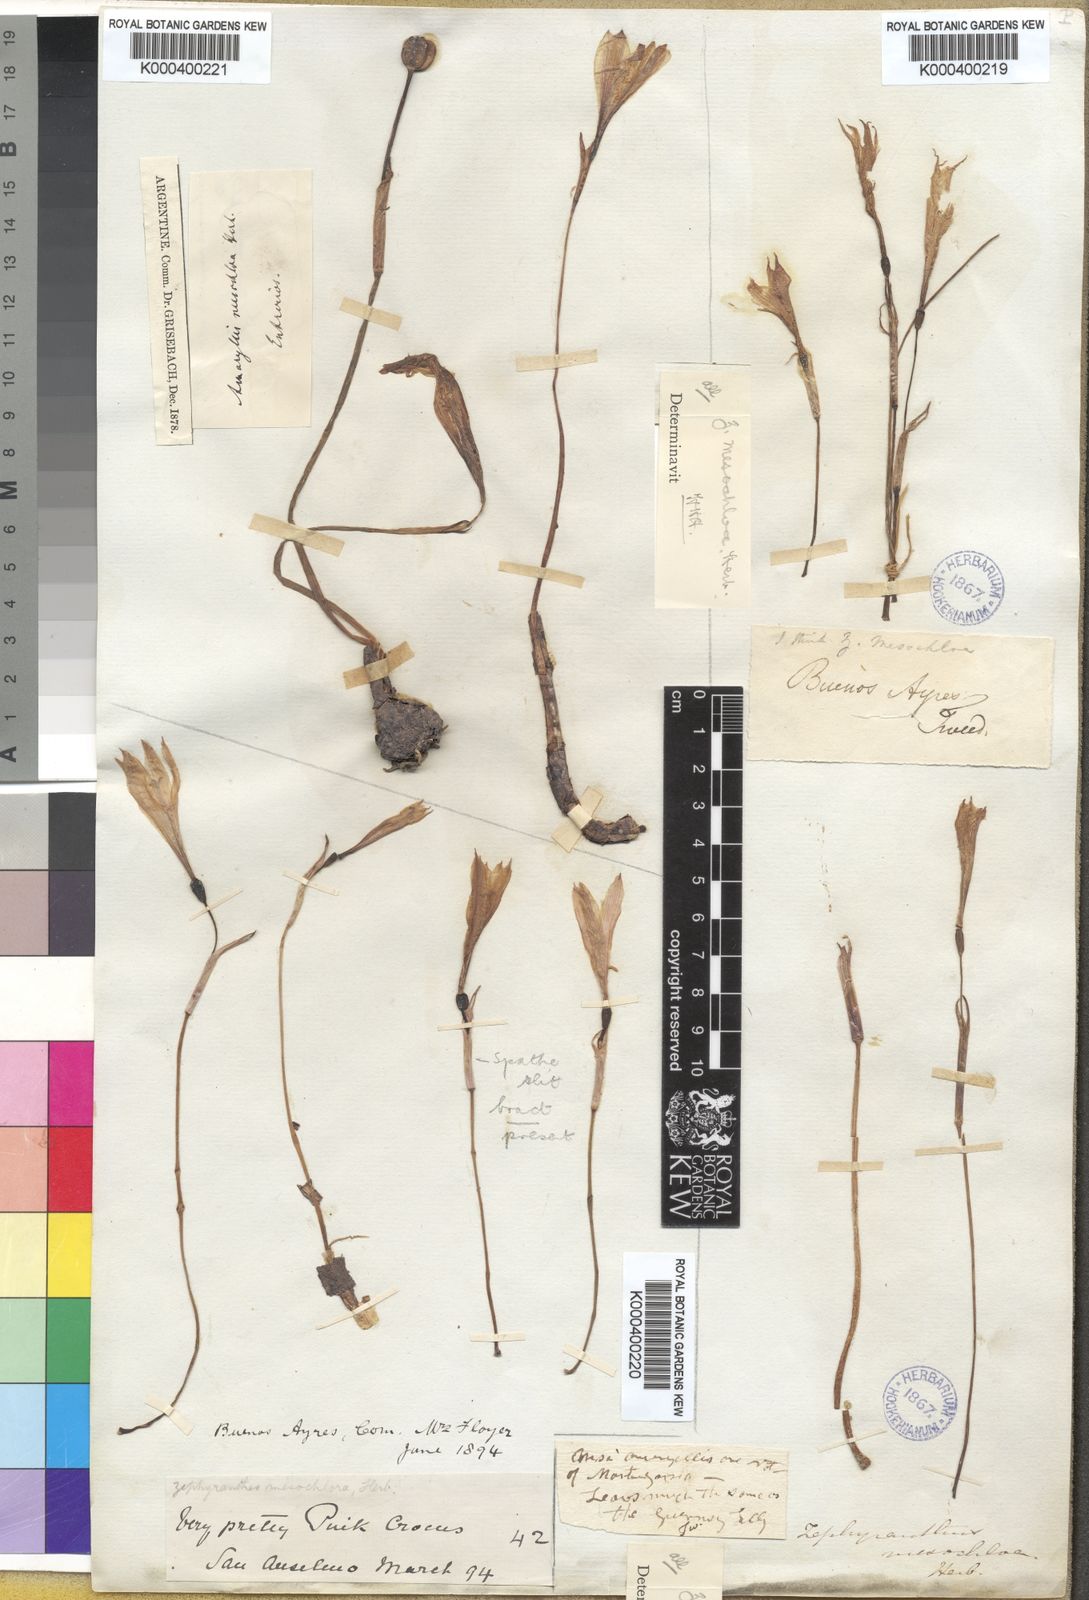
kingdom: Plantae
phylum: Tracheophyta
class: Liliopsida
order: Asparagales
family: Amaryllidaceae
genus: Zephyranthes
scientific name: Zephyranthes mesochloa
